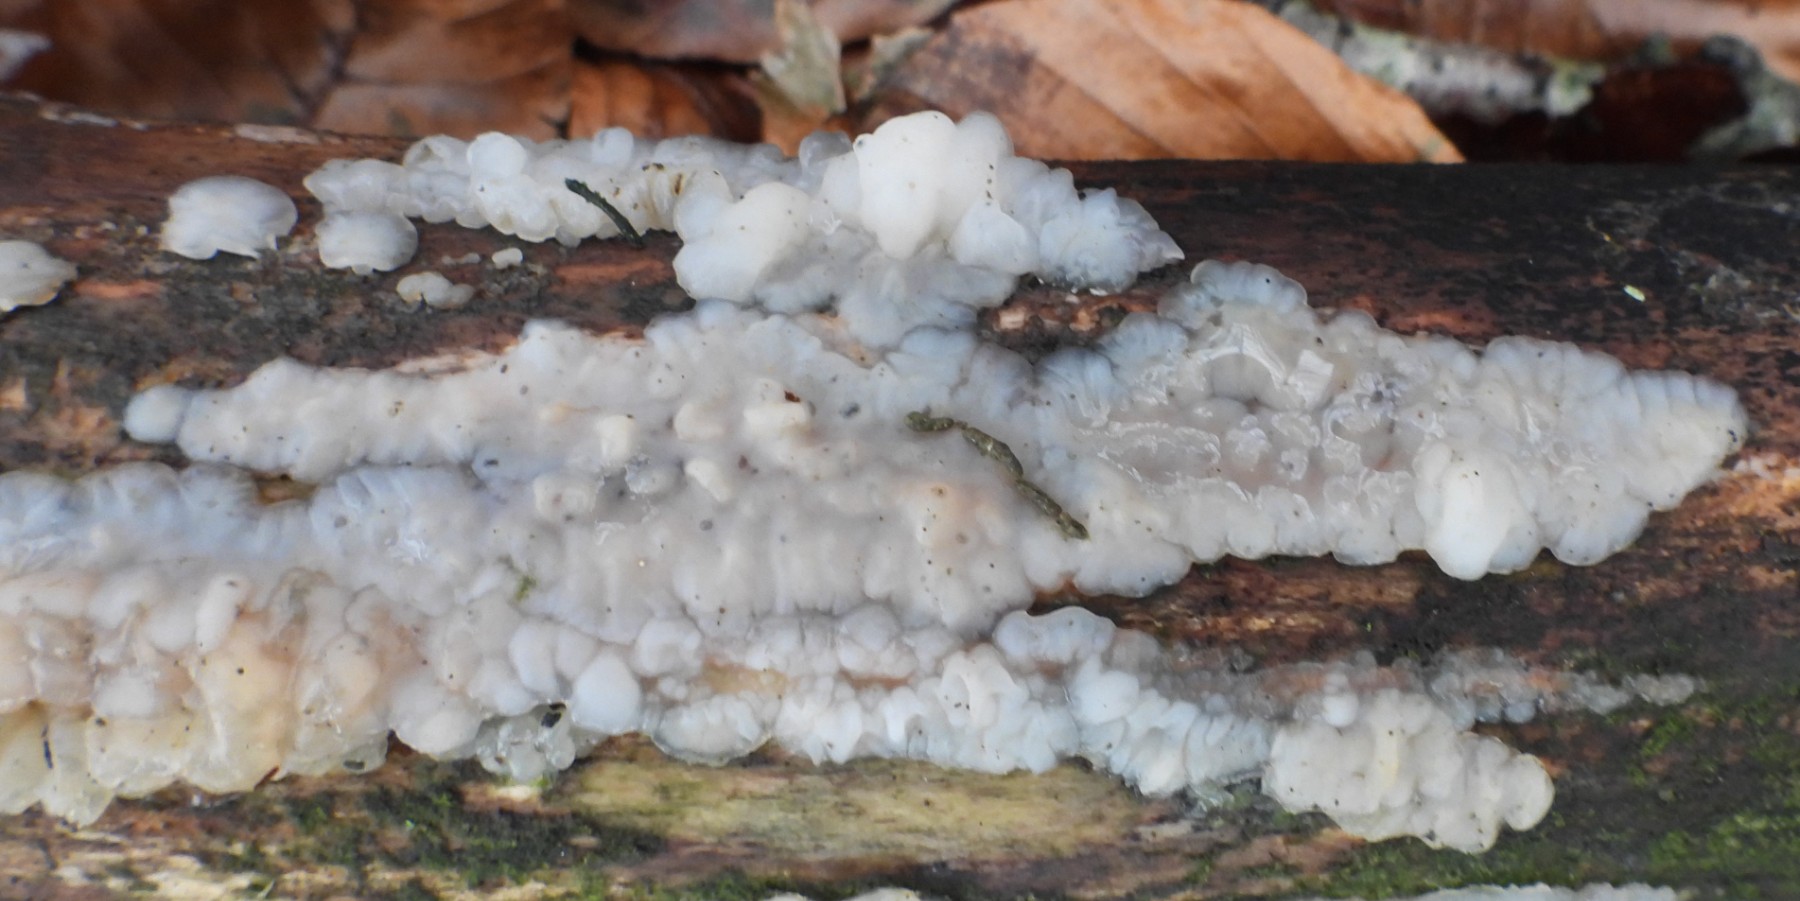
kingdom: Fungi
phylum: Basidiomycota
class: Agaricomycetes
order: Auriculariales
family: Auriculariaceae
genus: Exidia
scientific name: Exidia thuretiana
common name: hvidlig bævretop
